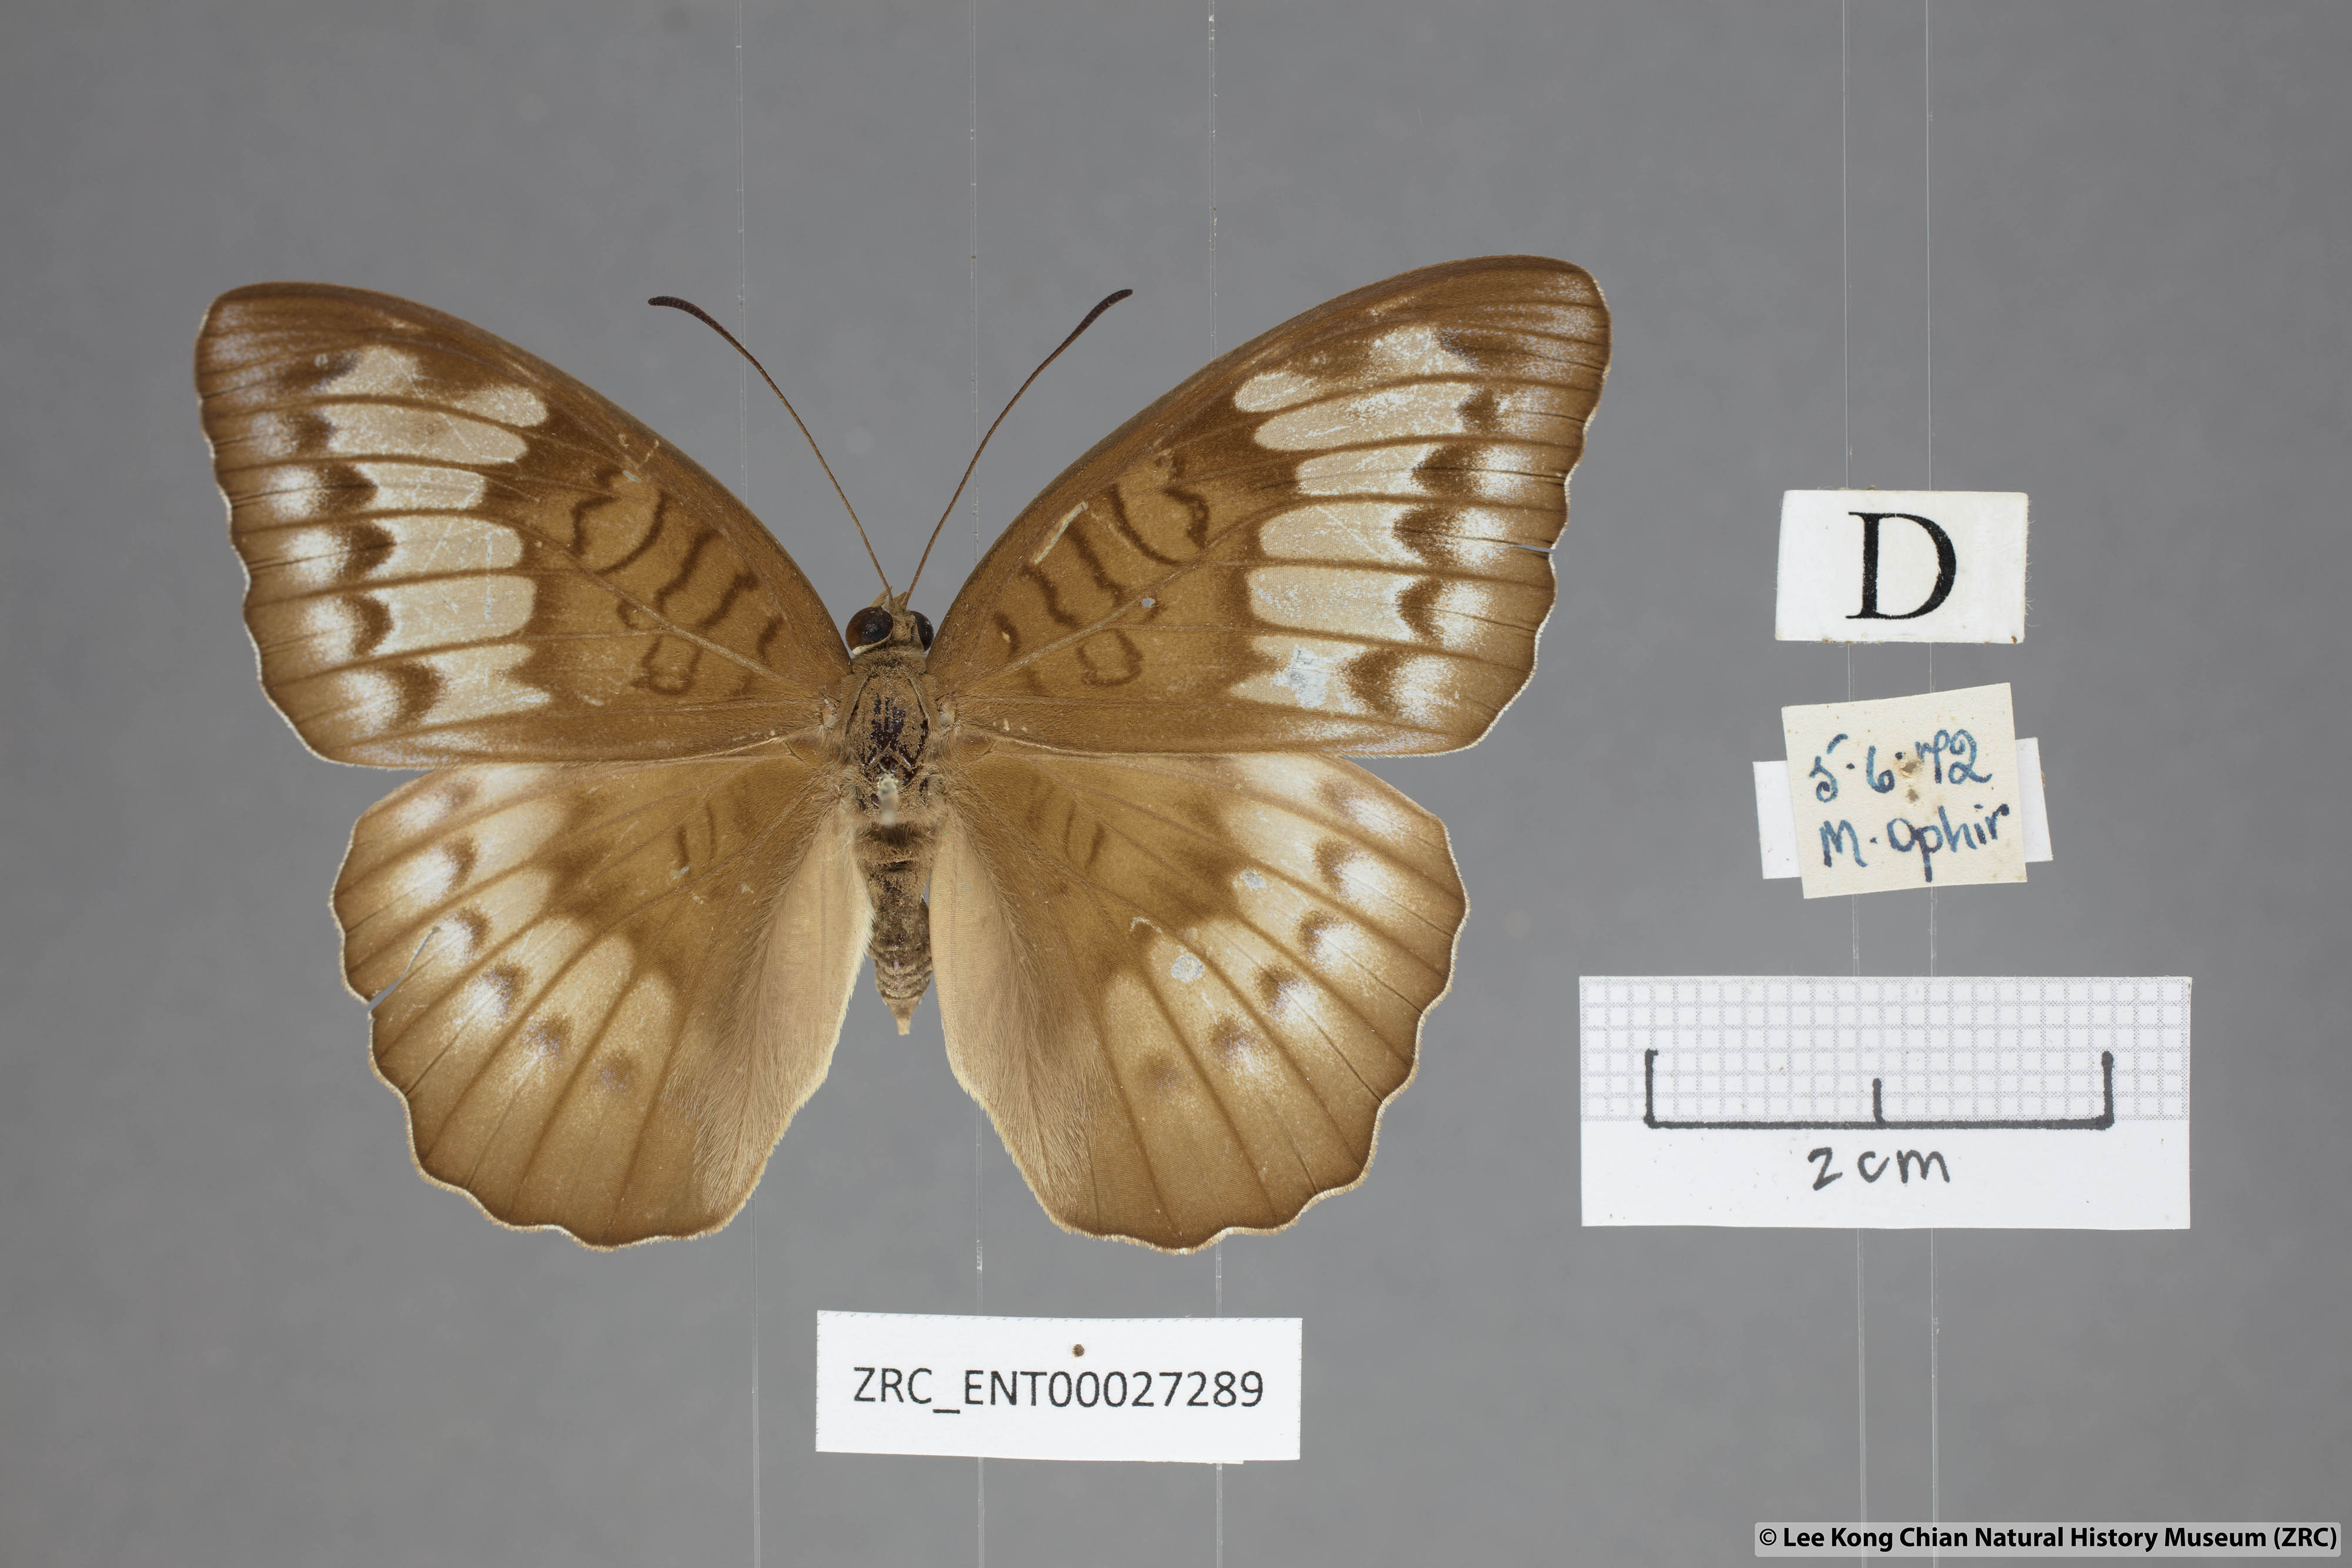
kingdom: Animalia
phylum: Arthropoda
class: Insecta
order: Lepidoptera
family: Nymphalidae
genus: Tanaecia
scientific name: Tanaecia iapis
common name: Horsfield's baron
